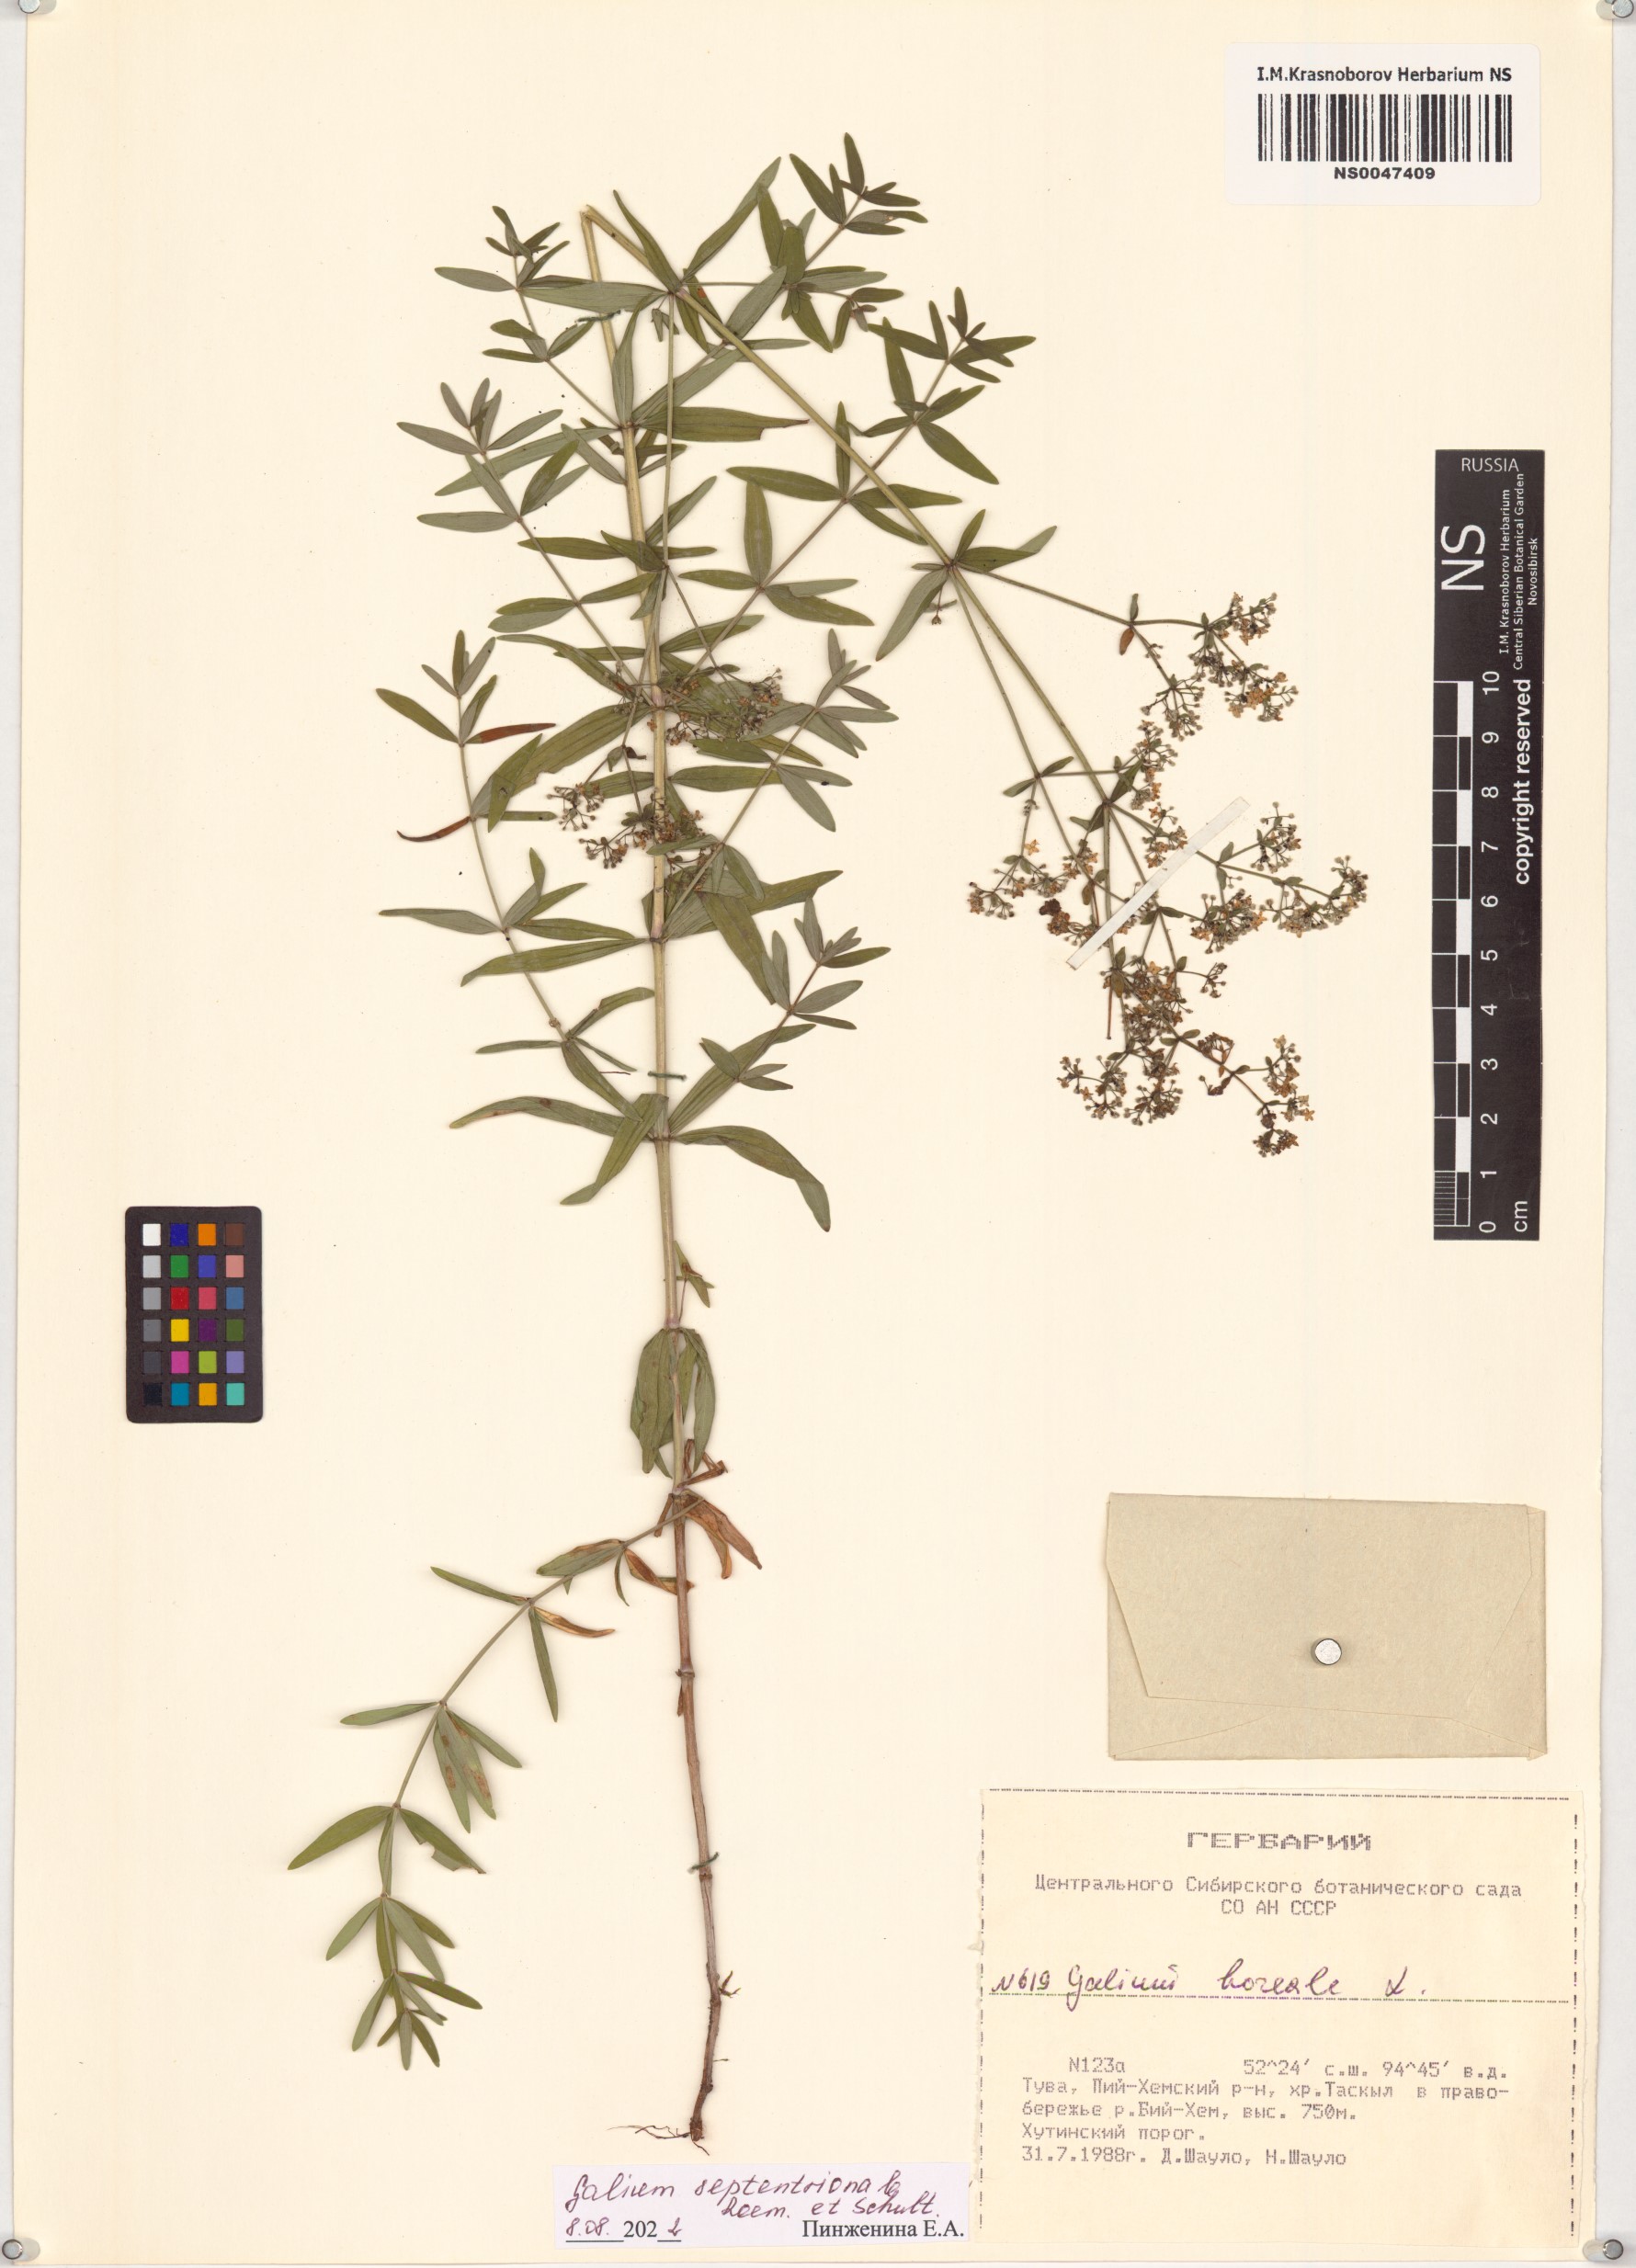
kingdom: Plantae
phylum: Tracheophyta
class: Magnoliopsida
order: Gentianales
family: Rubiaceae
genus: Galium
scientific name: Galium boreale
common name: Northern bedstraw
